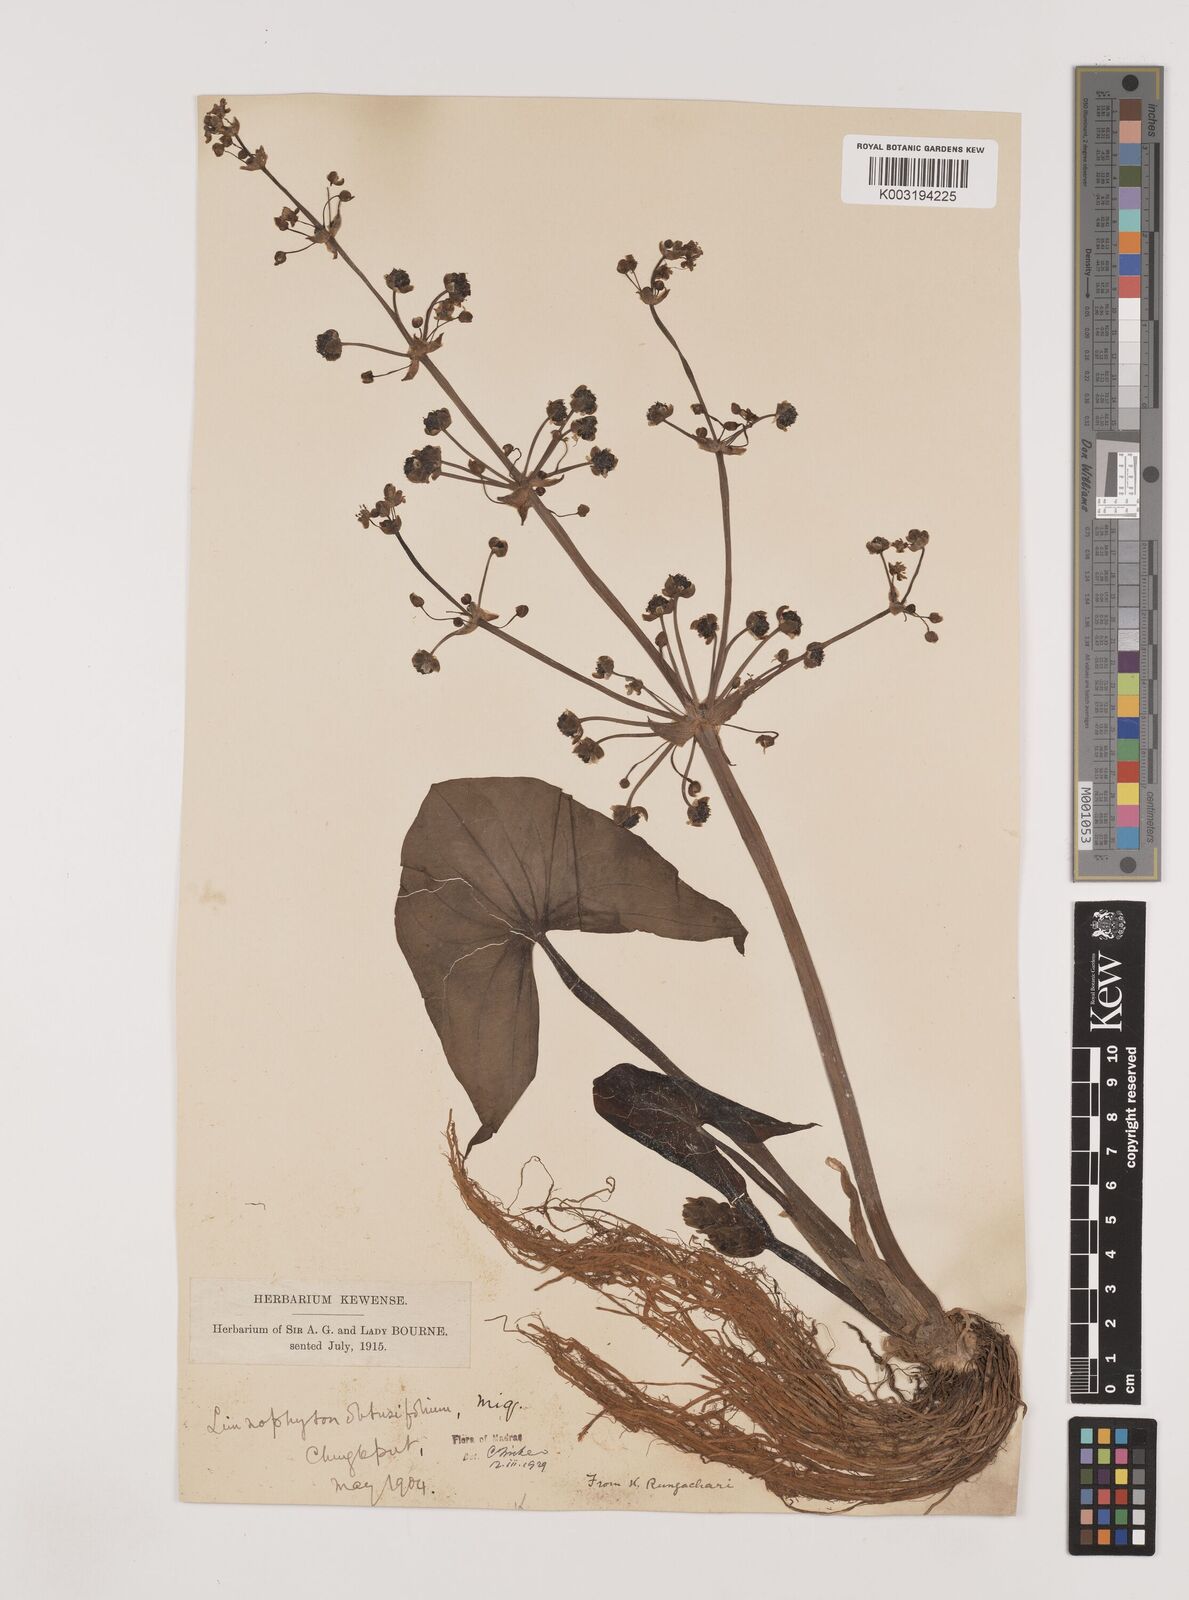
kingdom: Plantae
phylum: Tracheophyta
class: Liliopsida
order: Alismatales
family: Alismataceae
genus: Limnophyton
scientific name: Limnophyton obtusifolium
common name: Arrow head
